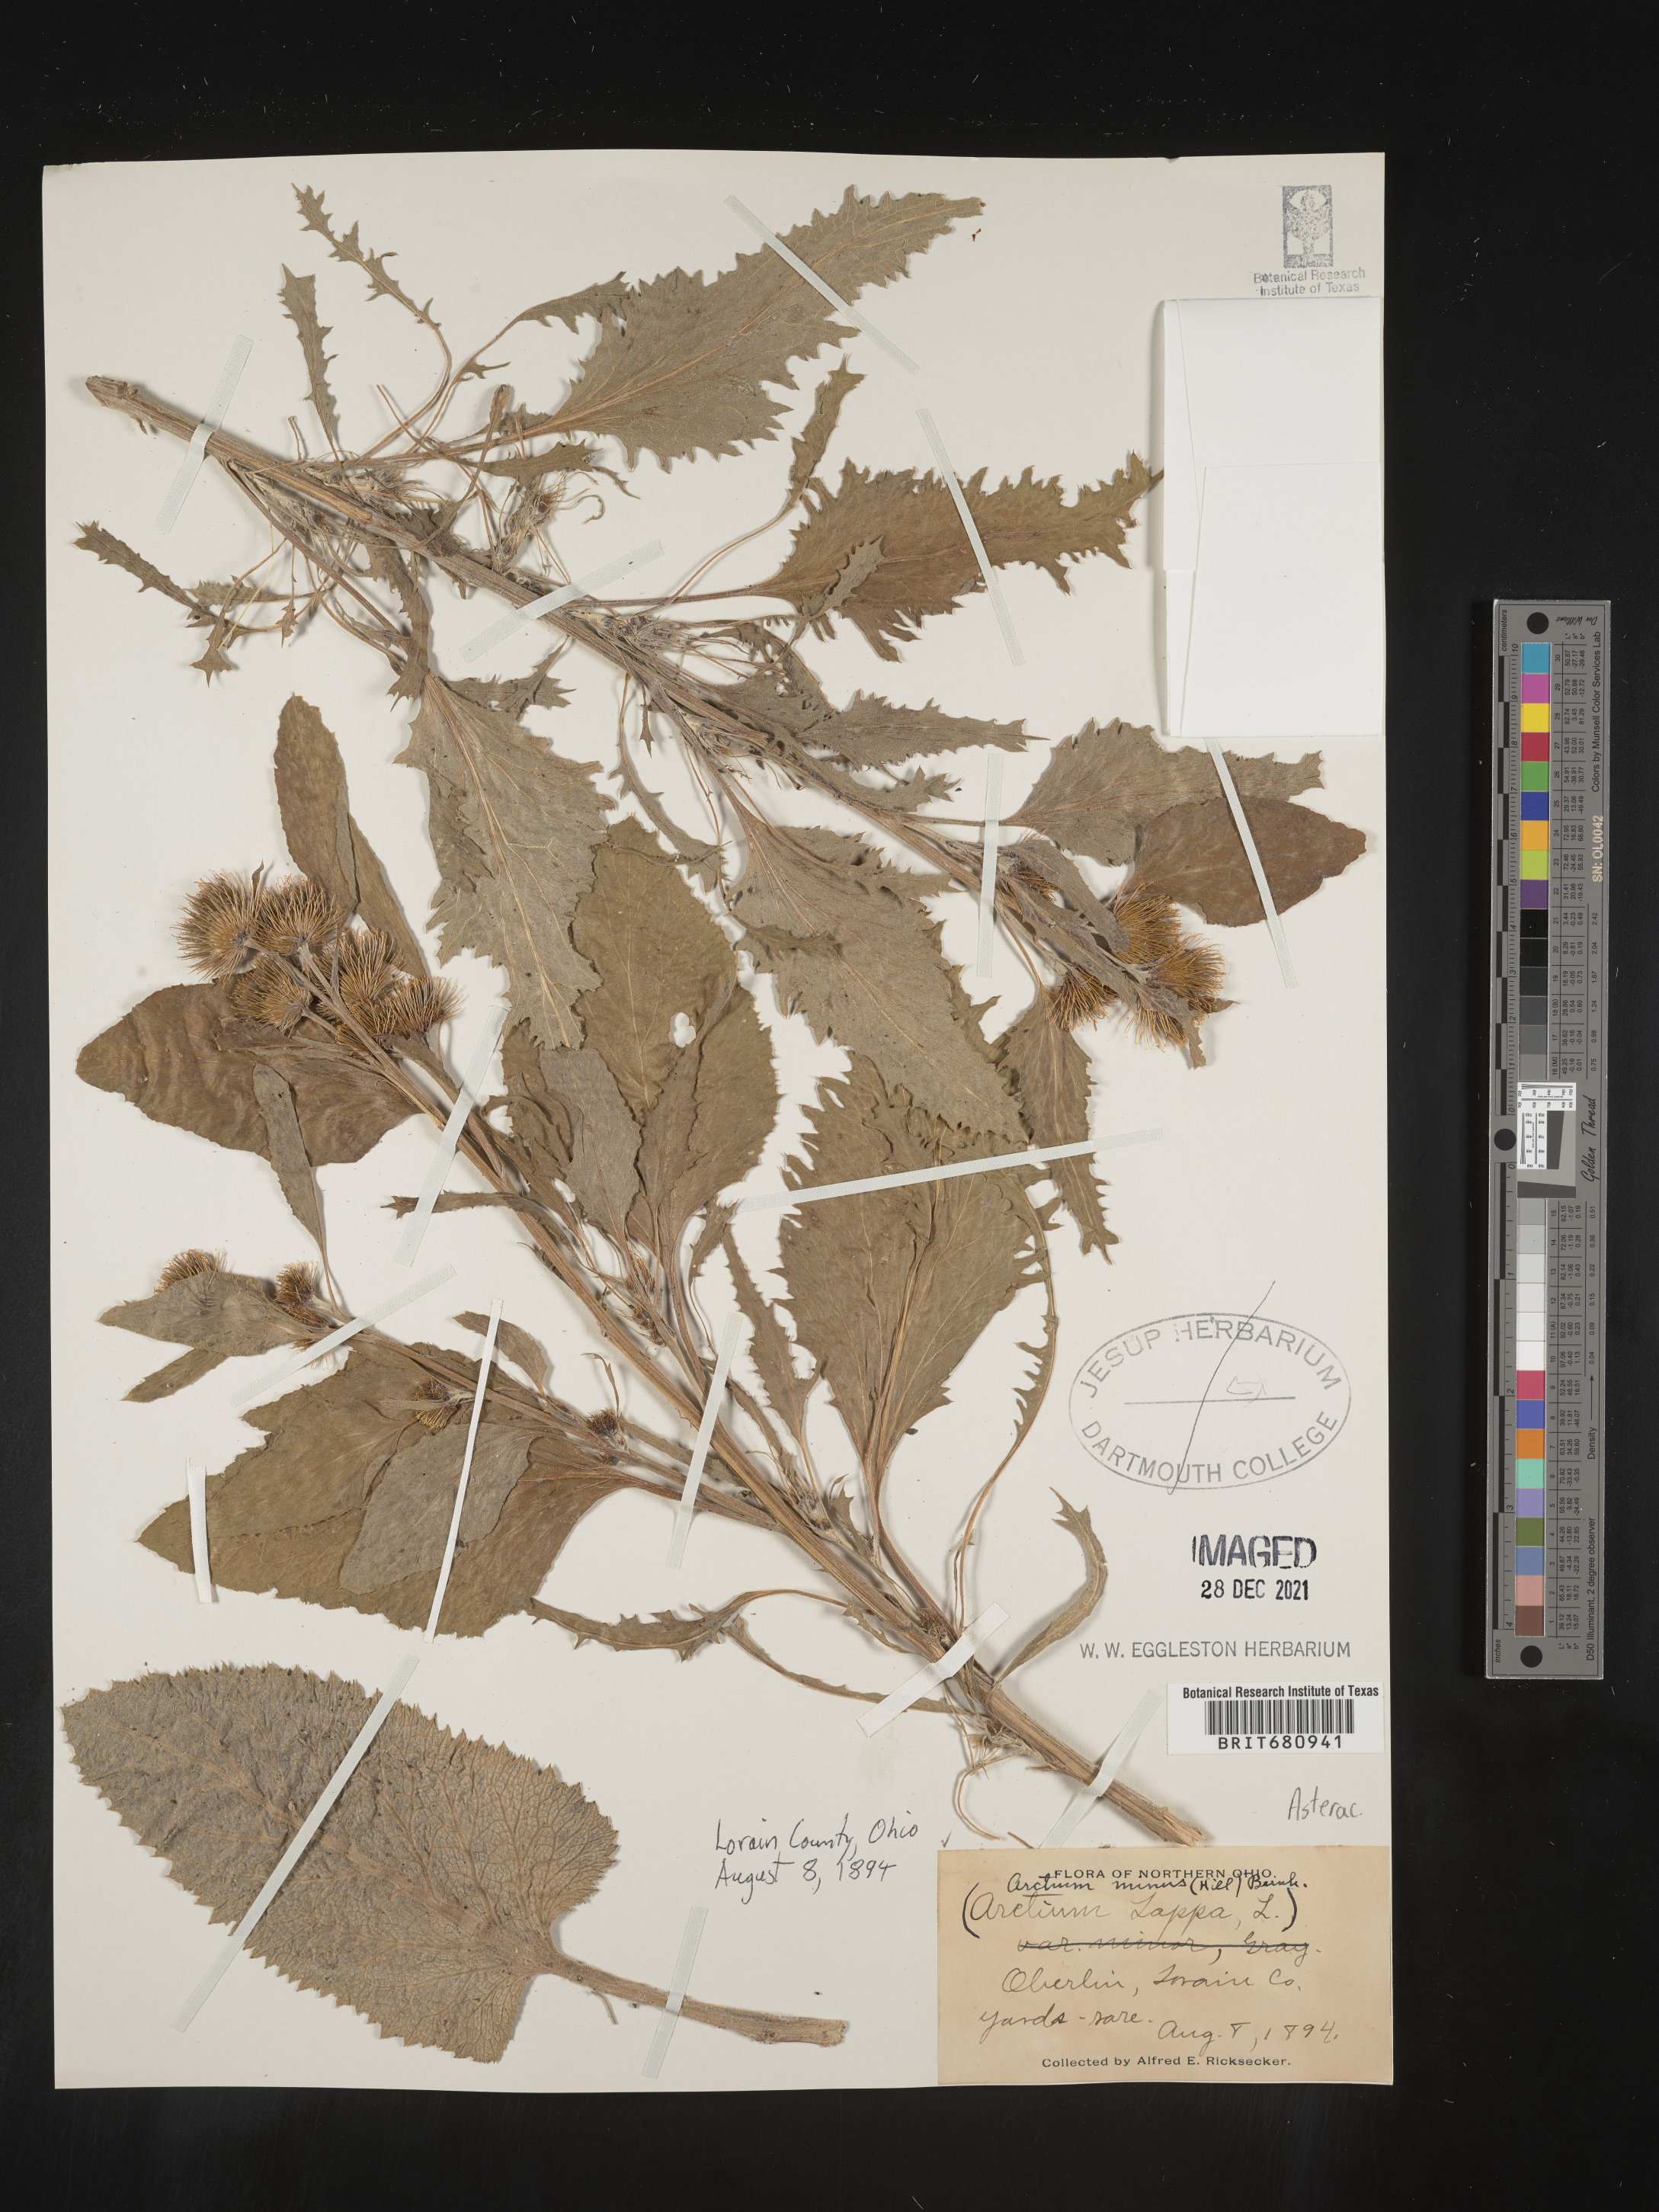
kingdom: Plantae
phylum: Tracheophyta
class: Magnoliopsida
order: Asterales
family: Asteraceae
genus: Arctium
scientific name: Arctium minus
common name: Lesser burdock
